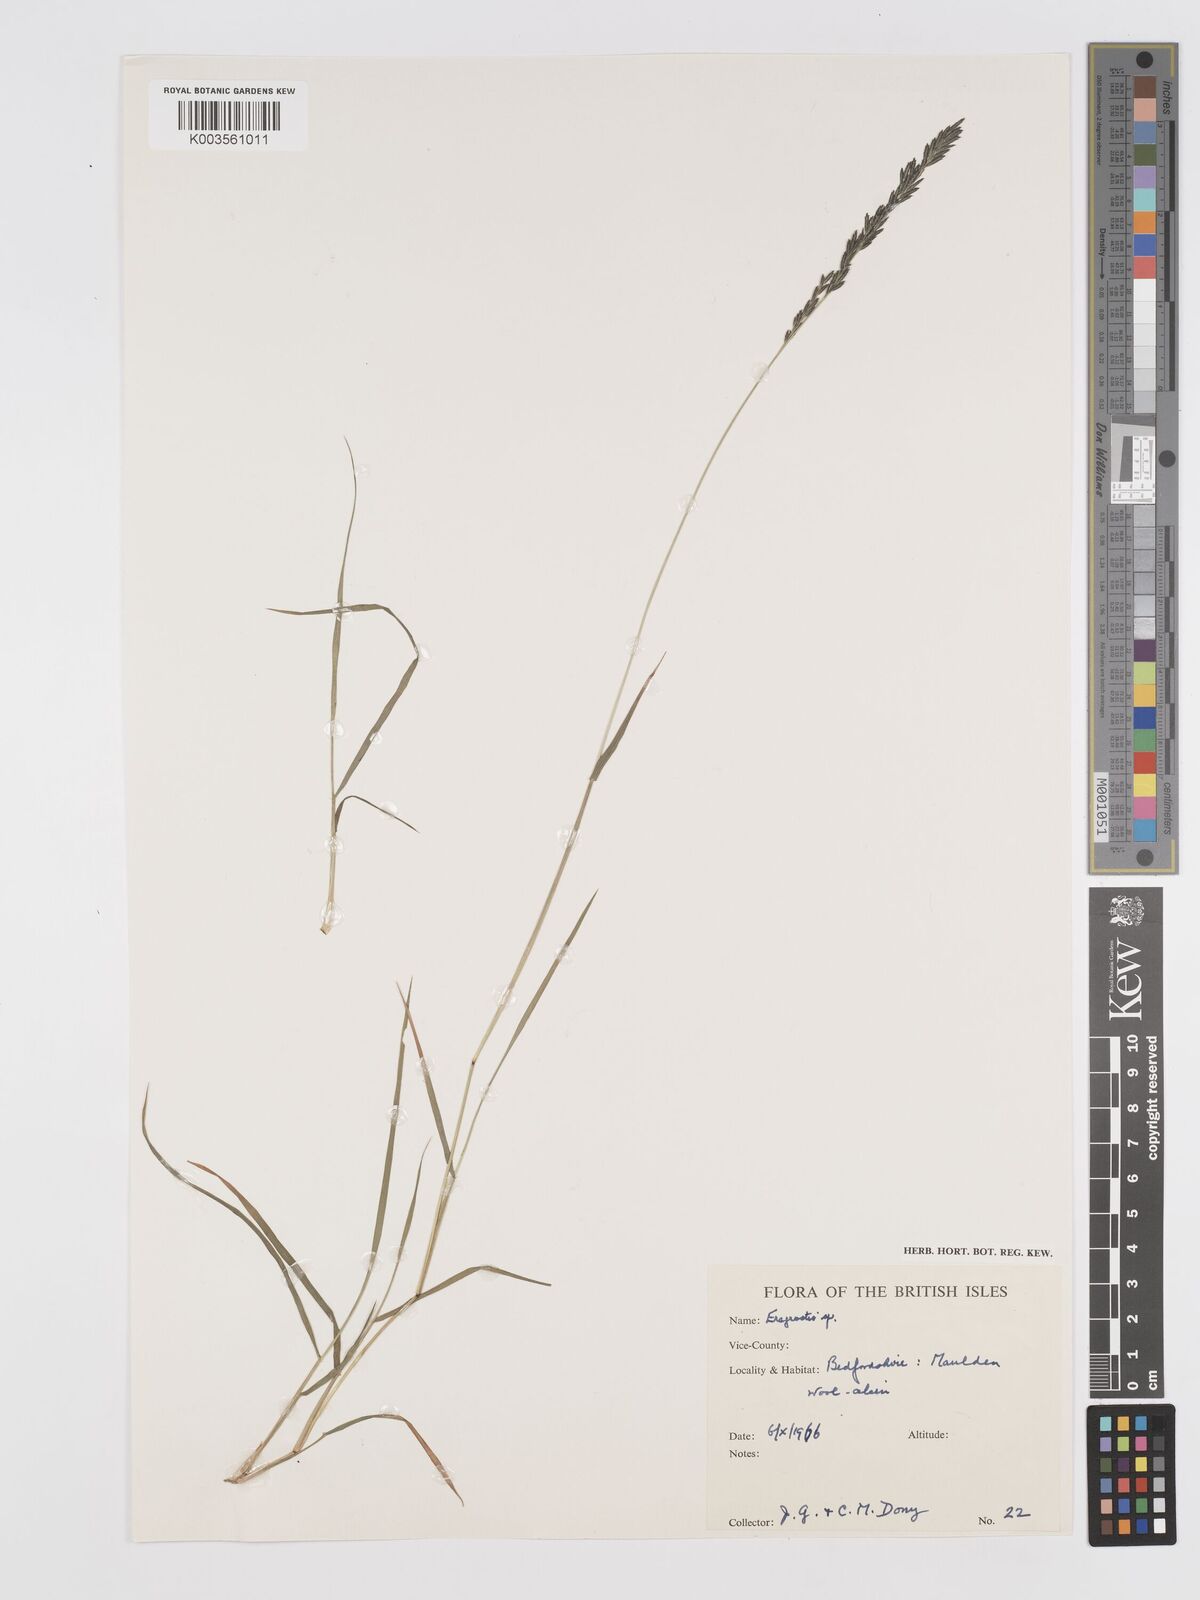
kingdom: Plantae
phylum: Tracheophyta
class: Liliopsida
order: Poales
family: Poaceae
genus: Eragrostis
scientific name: Eragrostis
